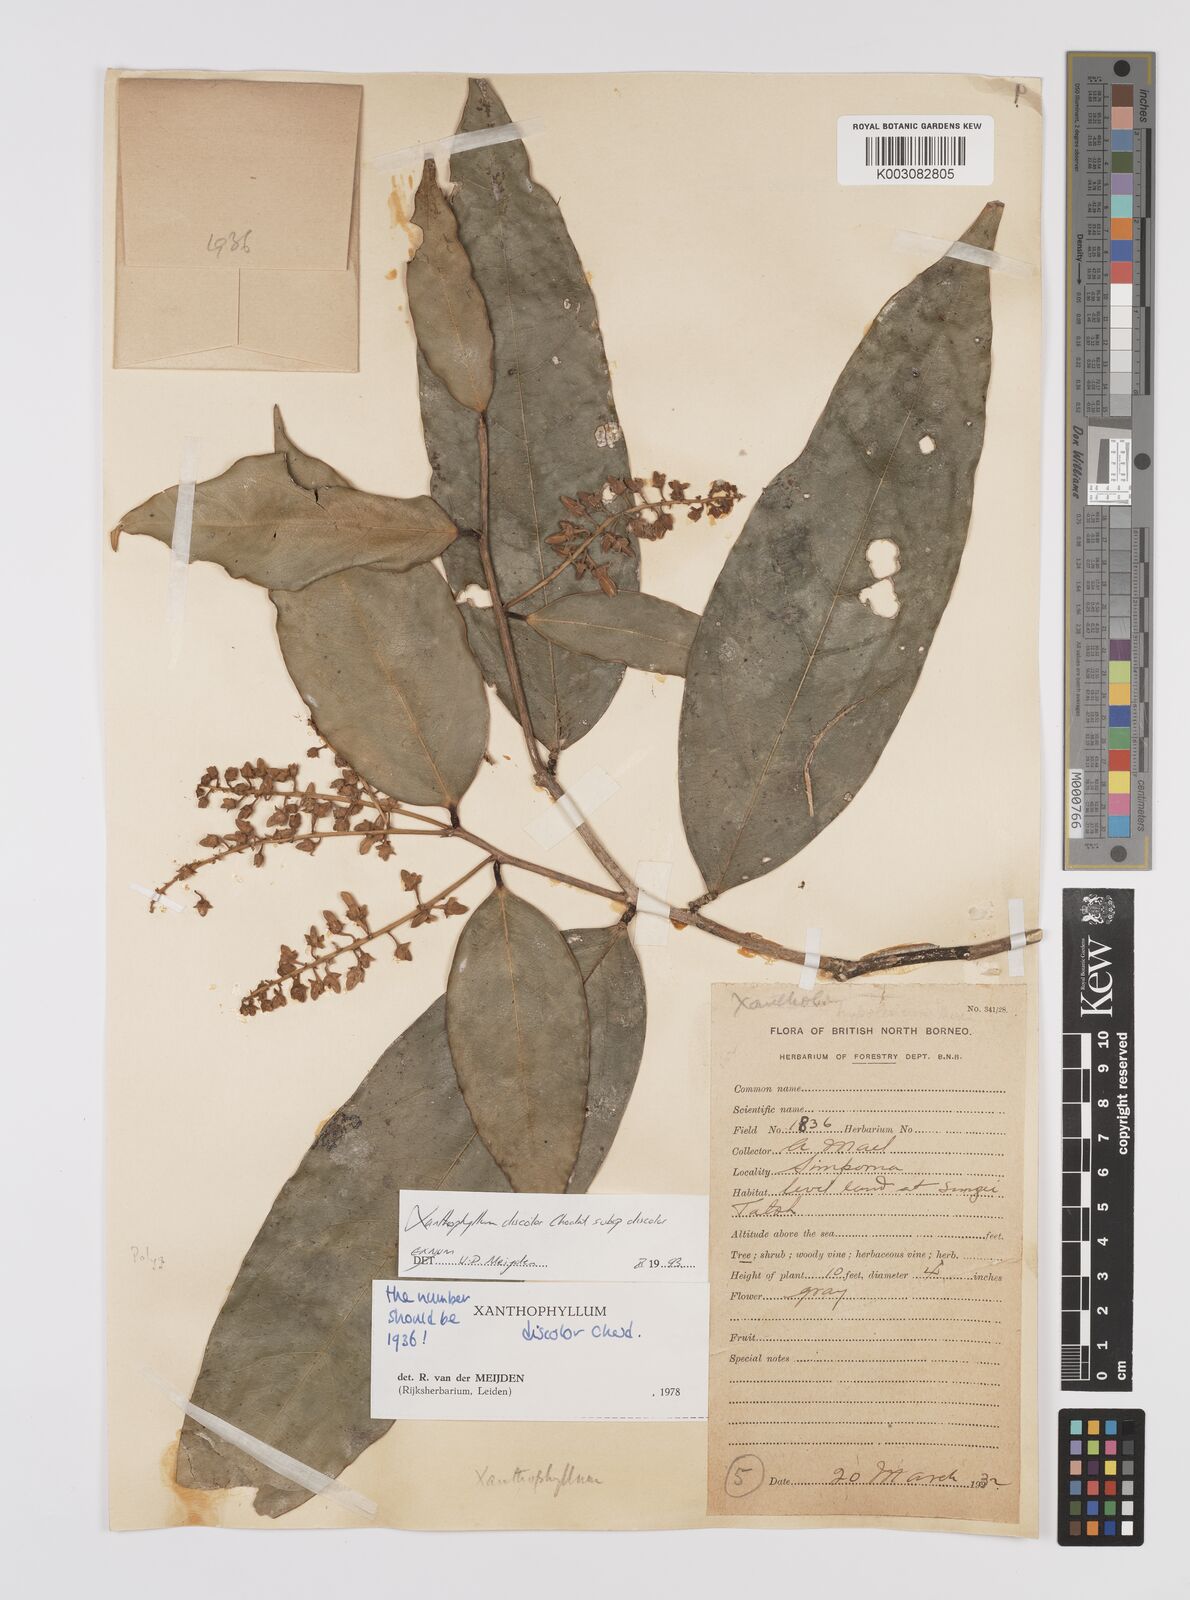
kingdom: Plantae
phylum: Tracheophyta
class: Magnoliopsida
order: Fabales
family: Polygalaceae
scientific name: Polygalaceae
